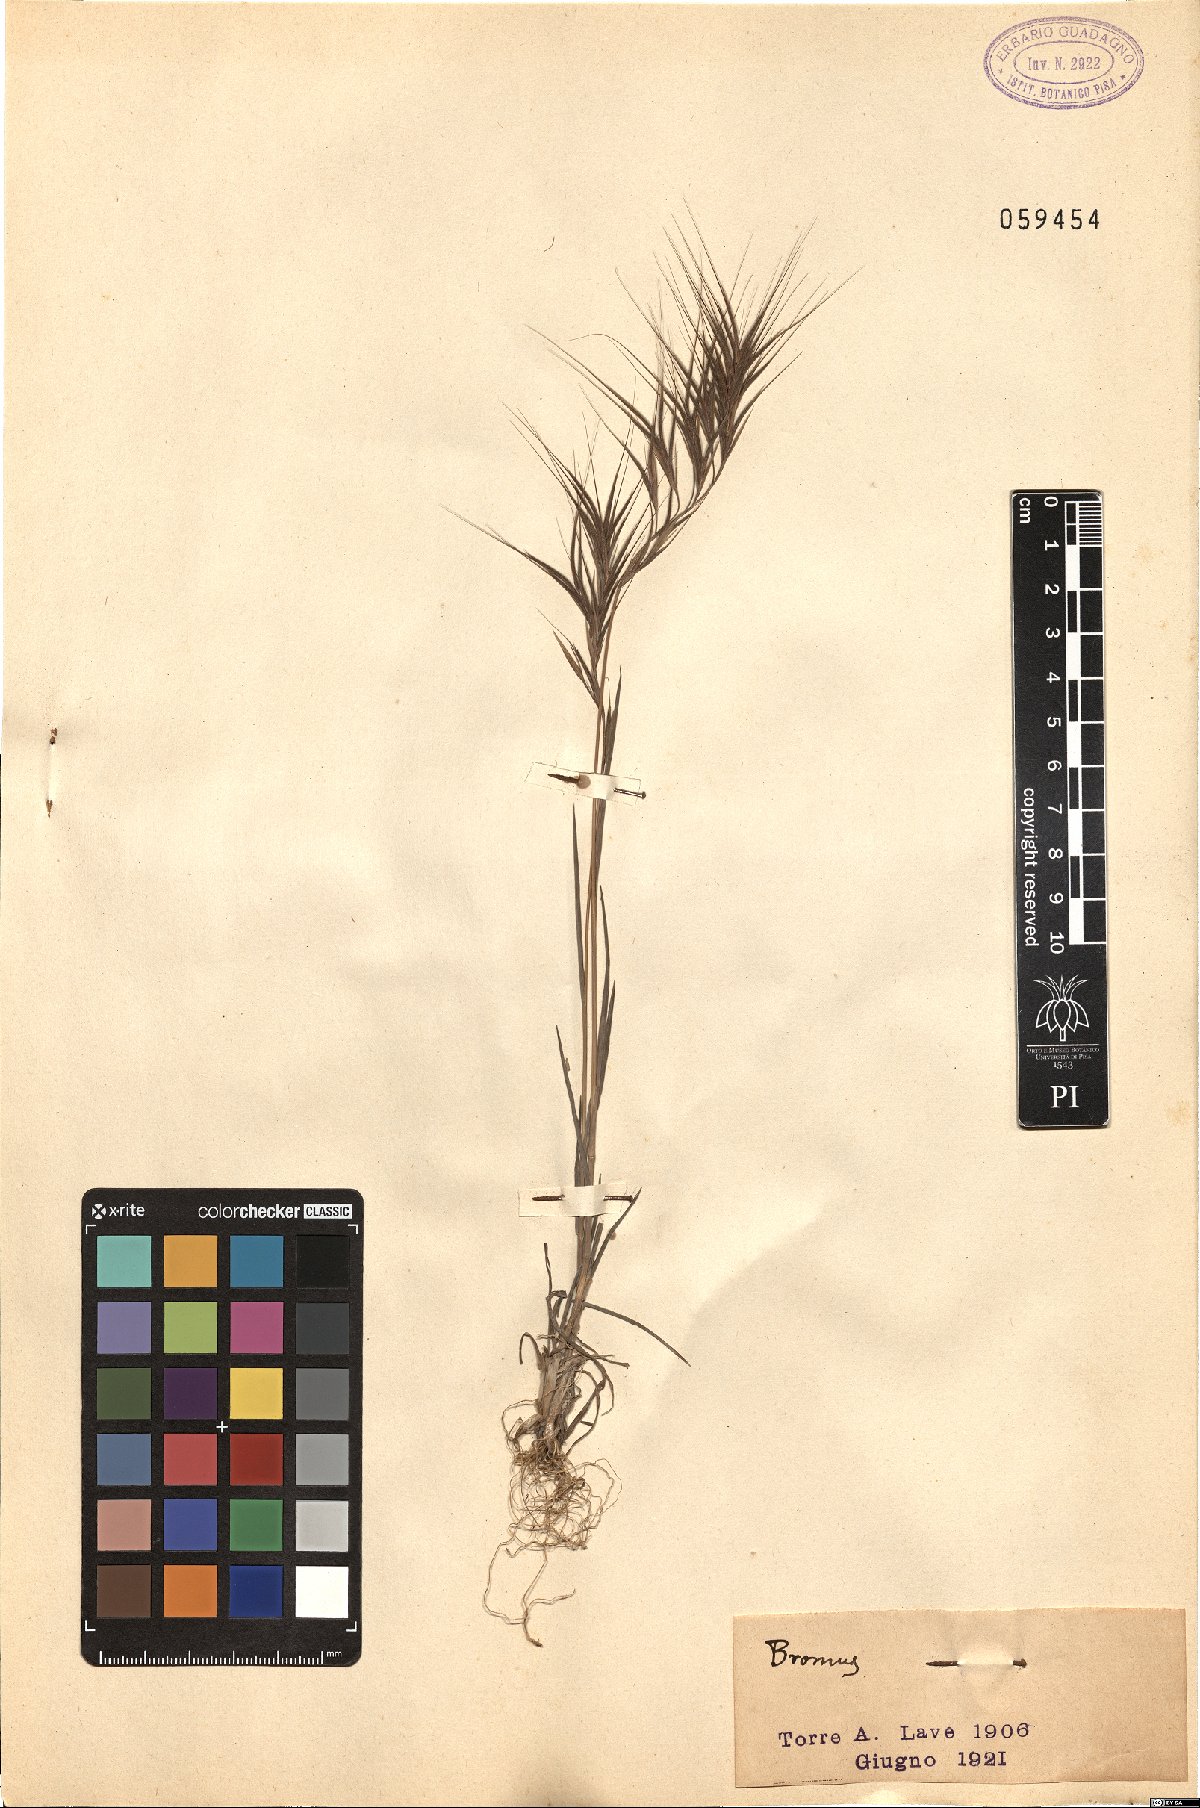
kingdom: Plantae
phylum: Tracheophyta
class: Liliopsida
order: Poales
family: Poaceae
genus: Bromus
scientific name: Bromus
